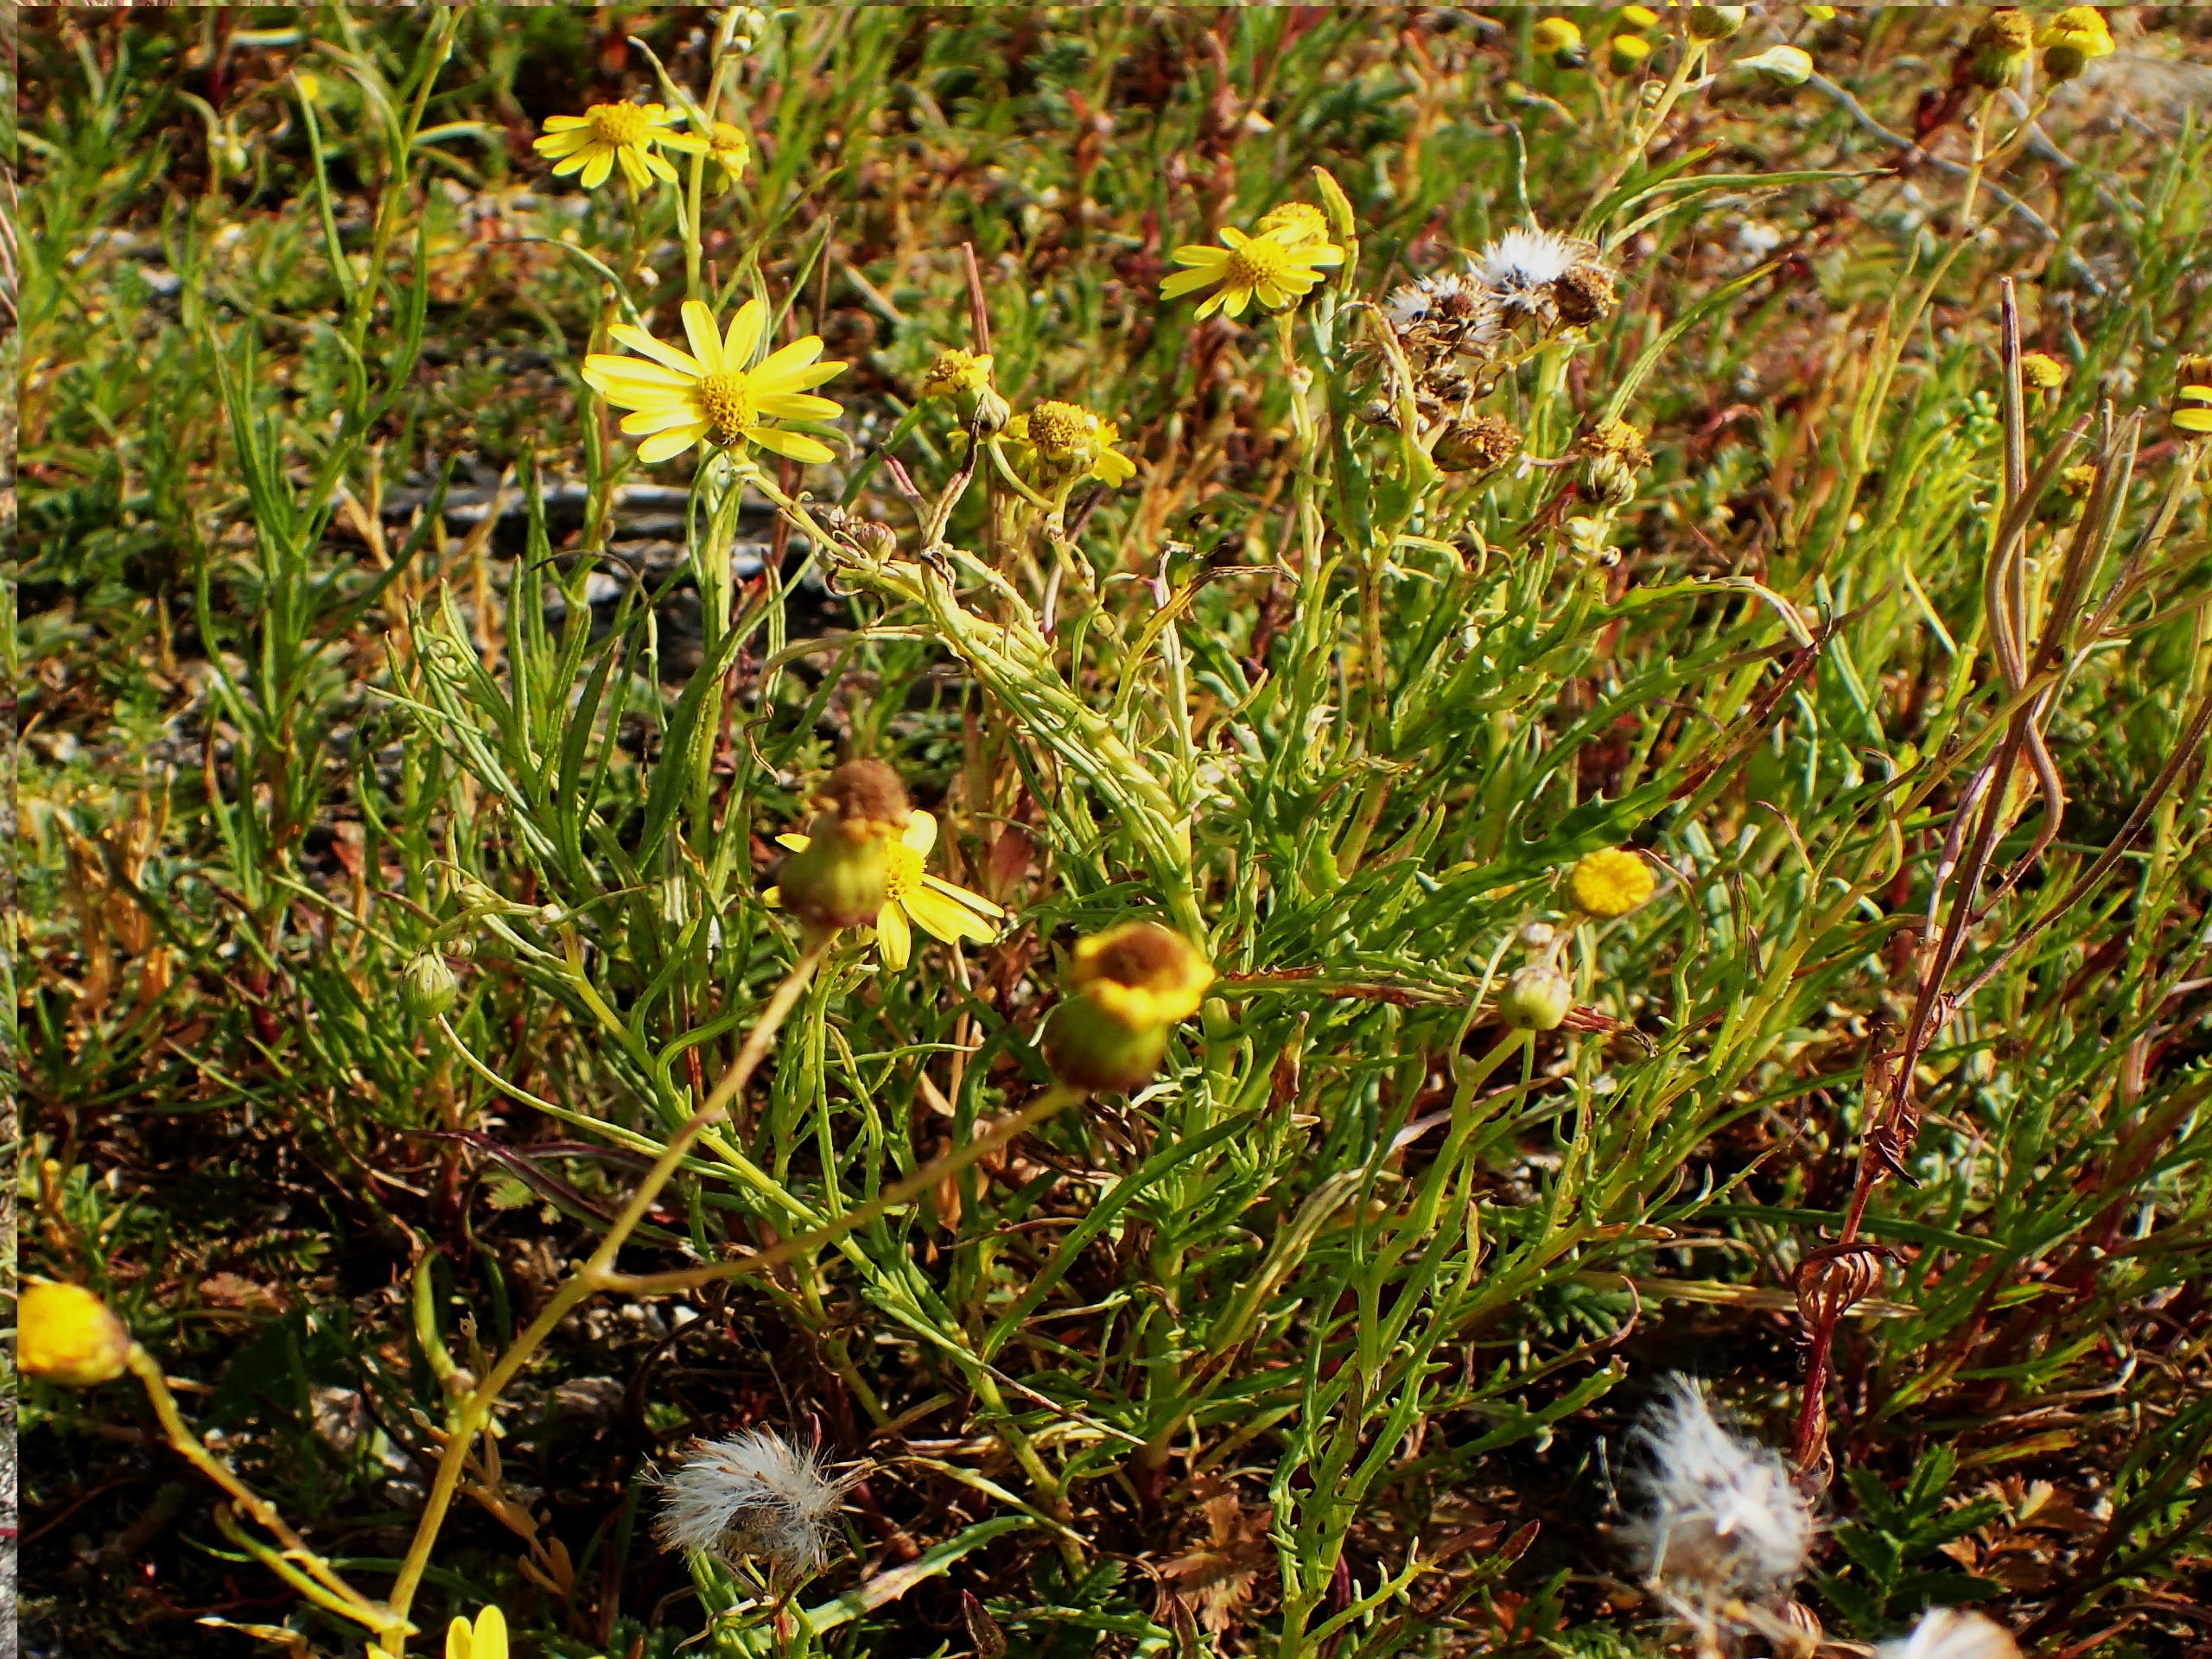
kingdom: Plantae
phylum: Tracheophyta
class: Magnoliopsida
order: Asterales
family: Asteraceae
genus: Senecio
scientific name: Senecio inaequidens
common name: Smalbladet brandbæger
